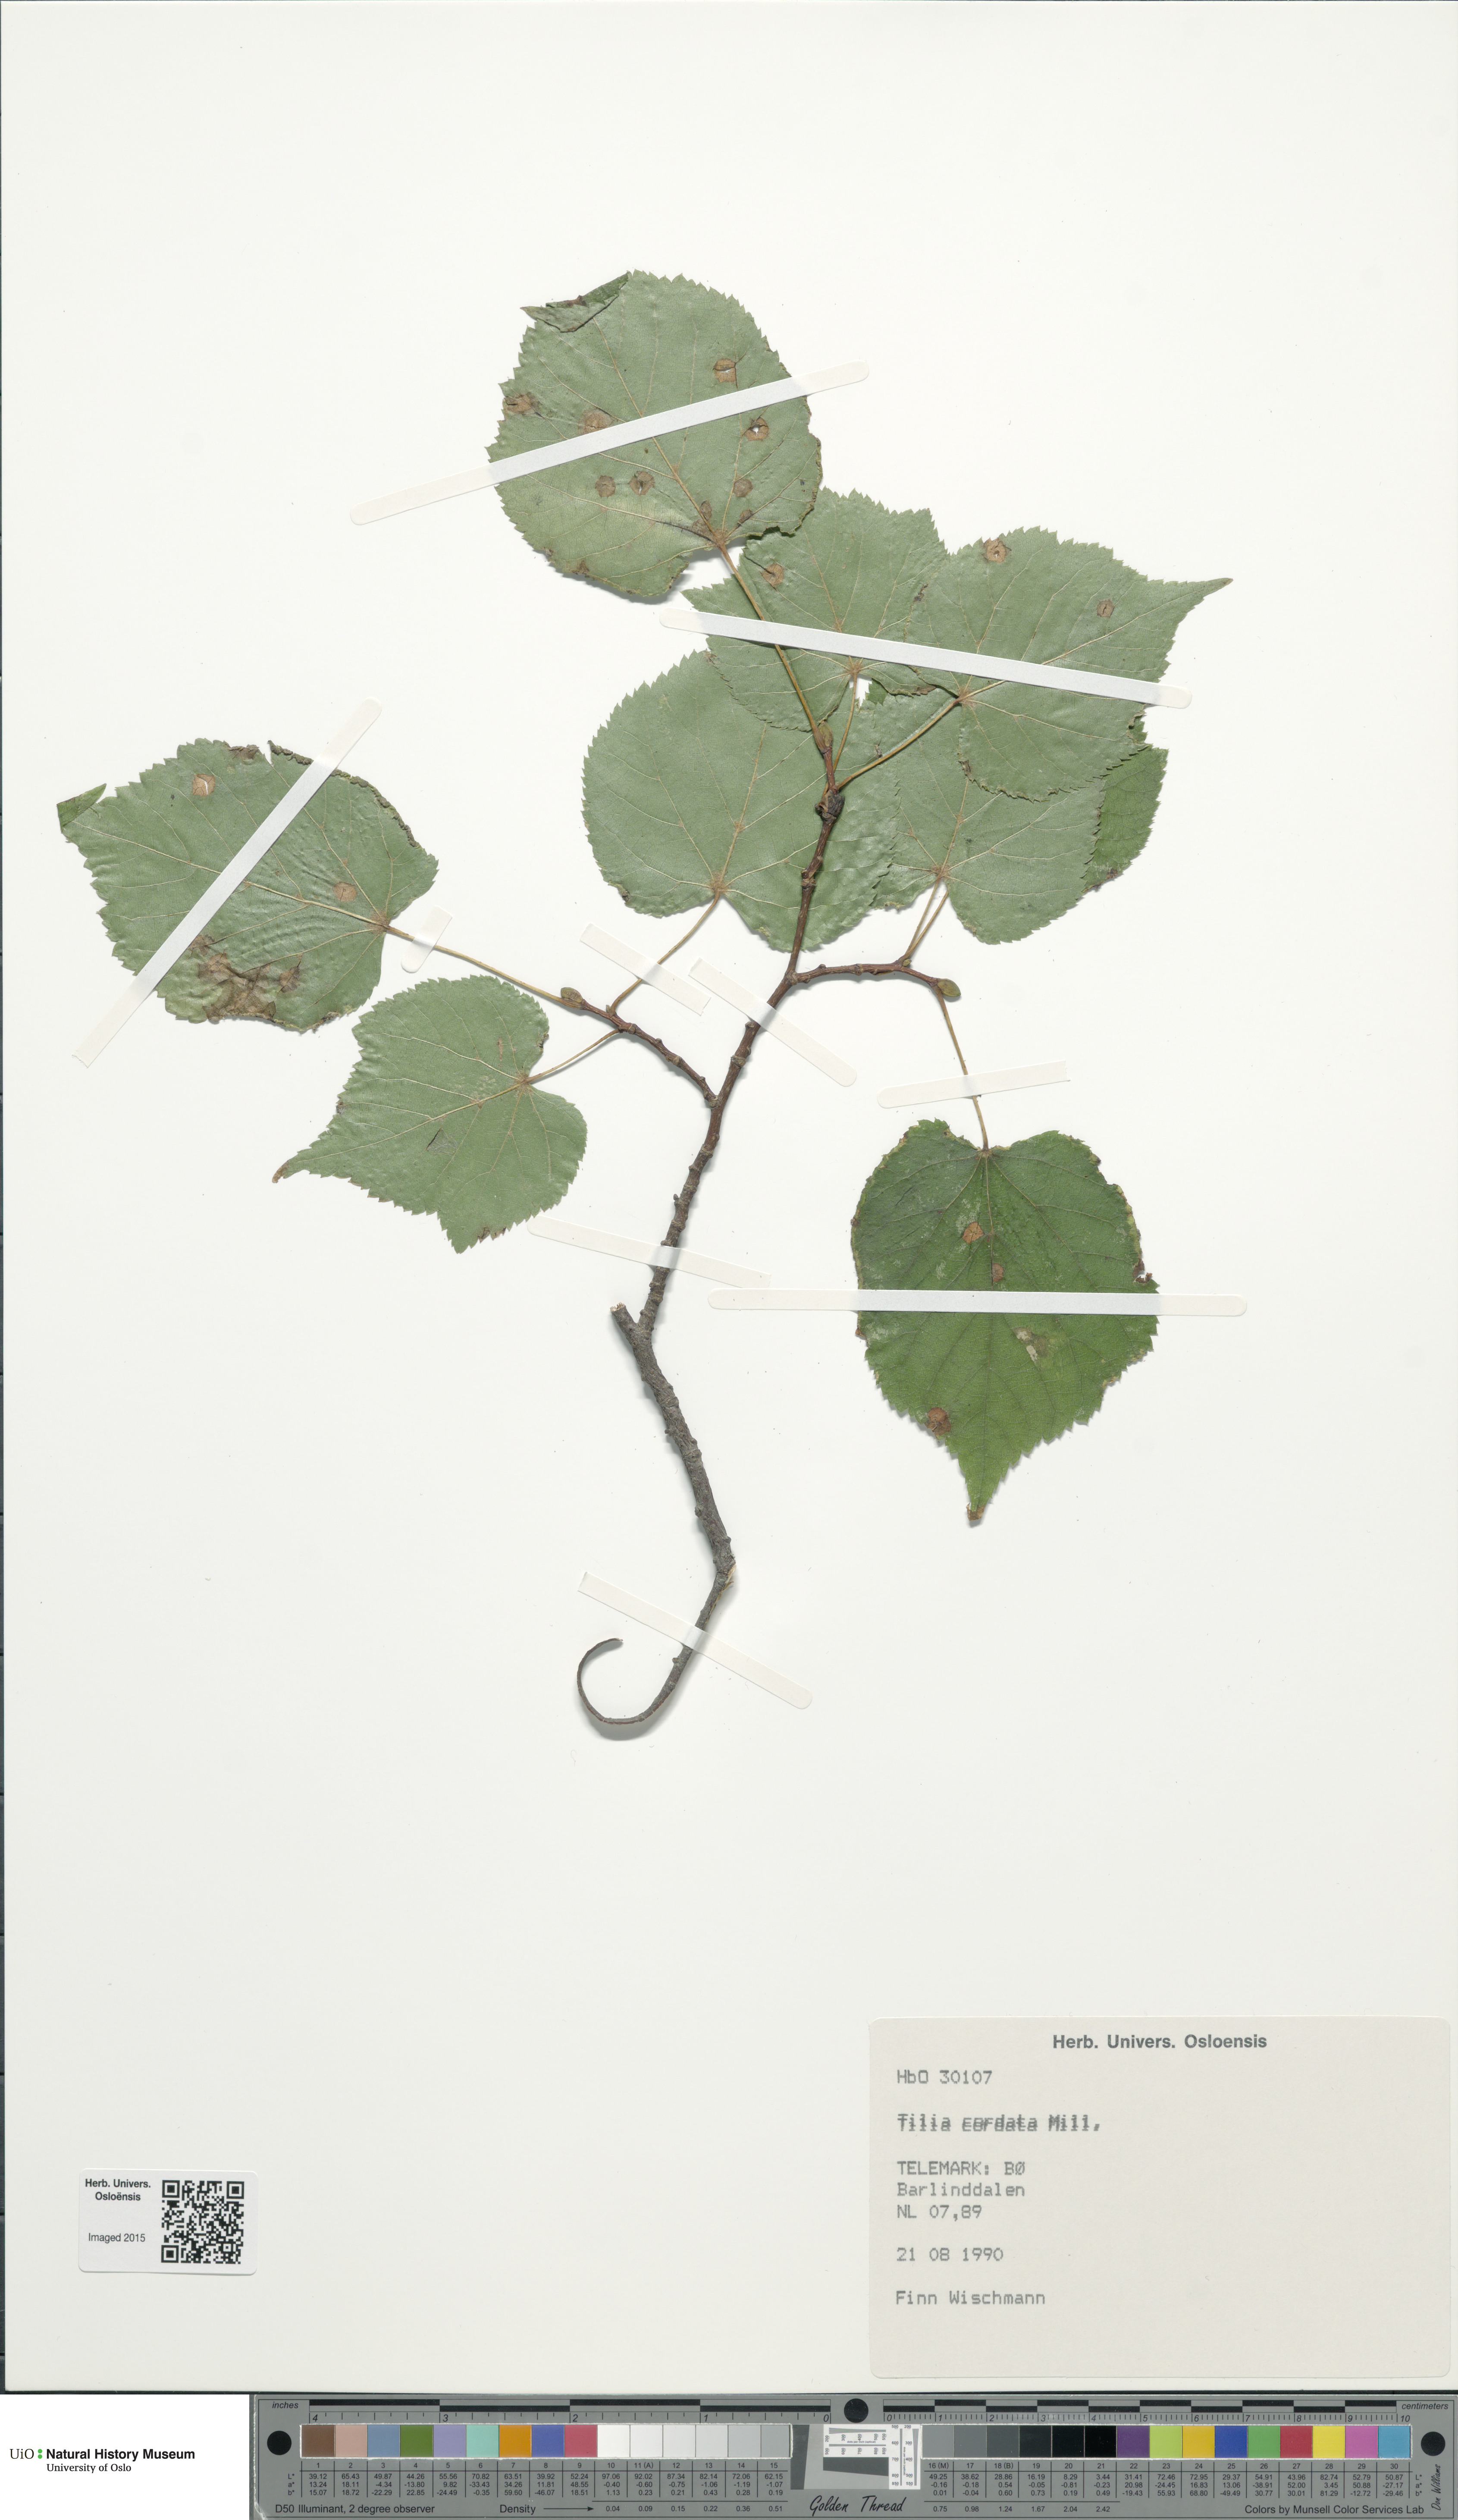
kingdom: Plantae
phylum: Tracheophyta
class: Magnoliopsida
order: Malvales
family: Malvaceae
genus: Tilia
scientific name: Tilia cordata
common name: Small-leaved lime
